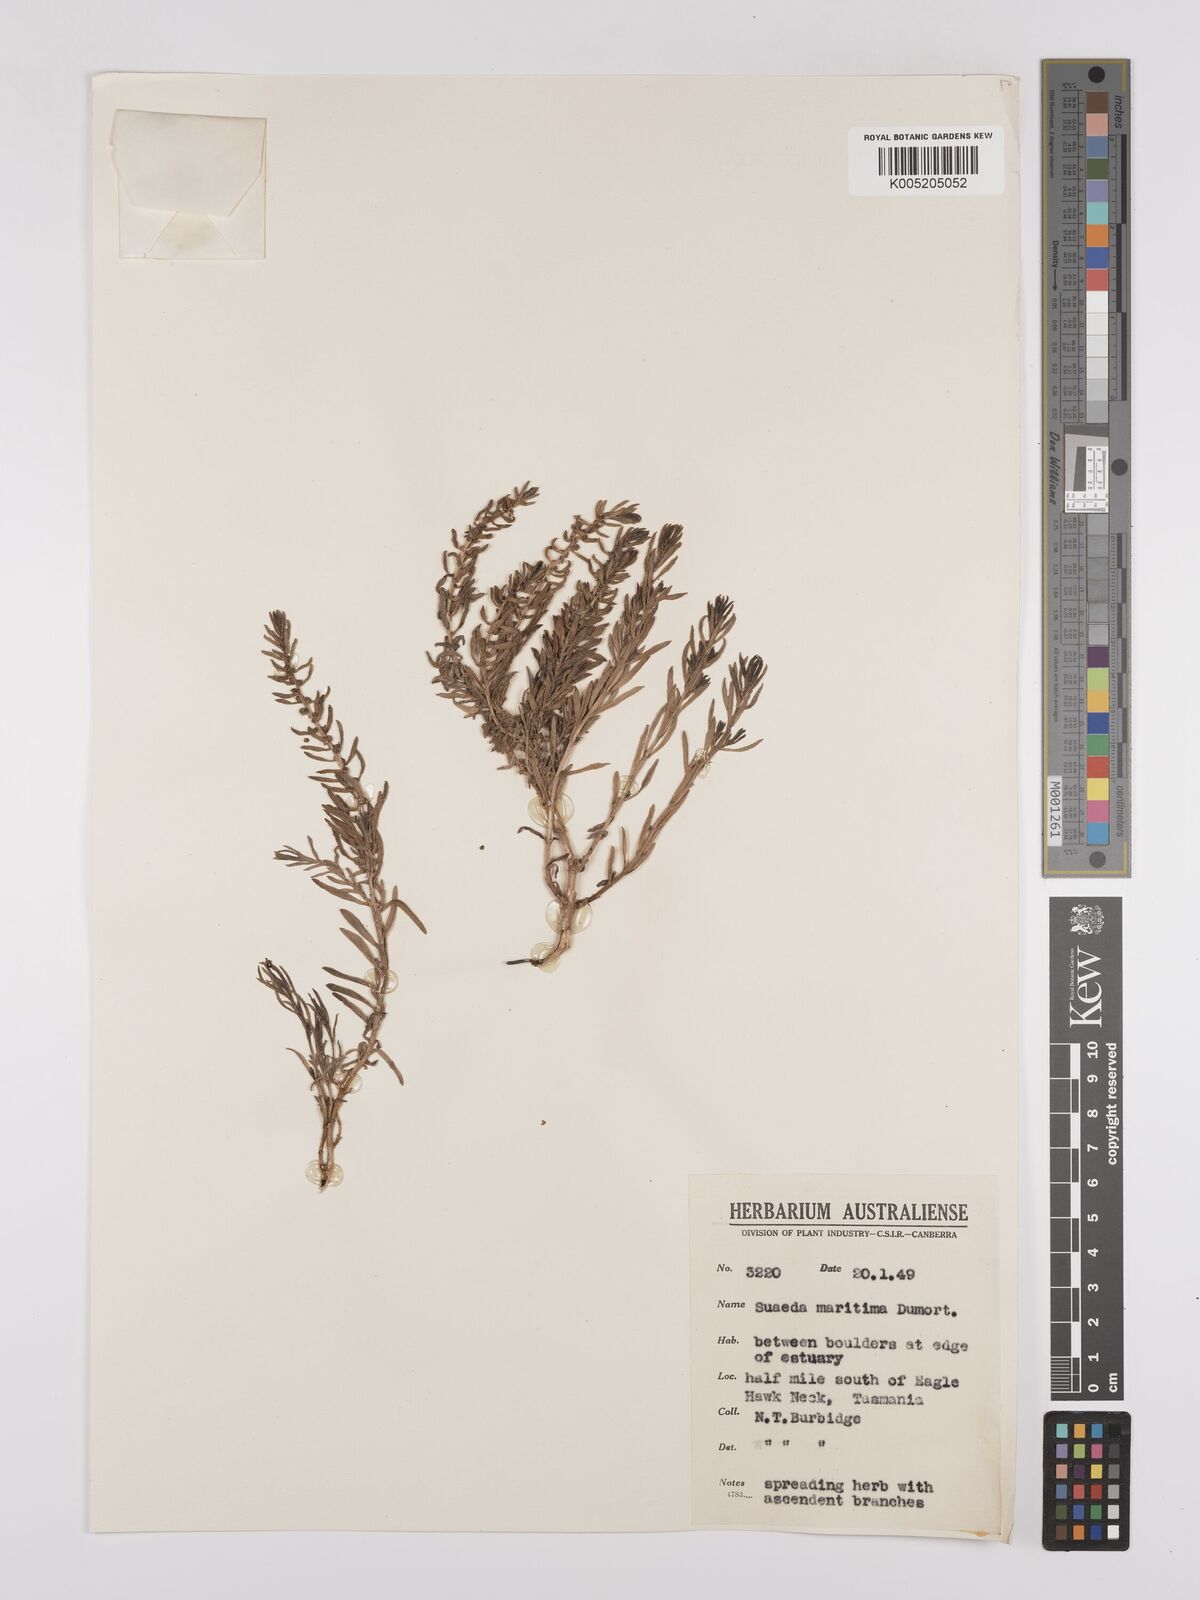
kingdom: Plantae
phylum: Tracheophyta
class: Magnoliopsida
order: Caryophyllales
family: Amaranthaceae
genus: Suaeda
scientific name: Suaeda australis
